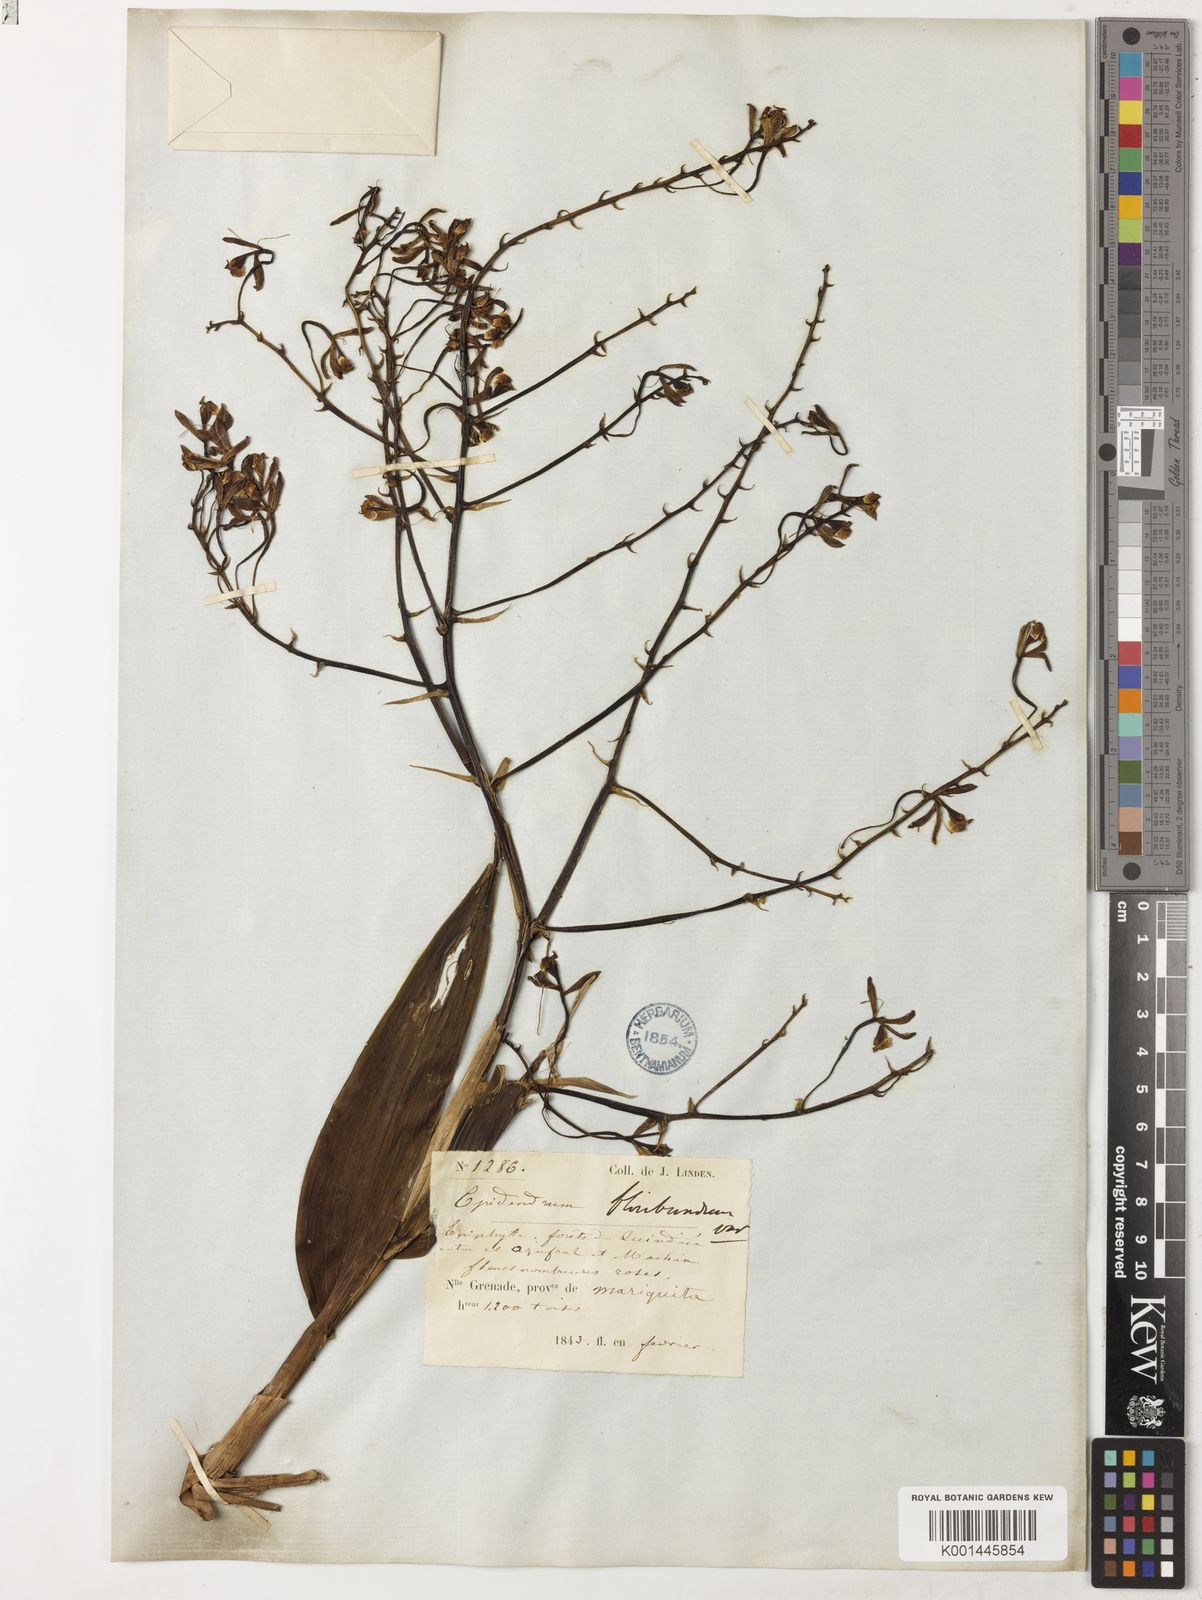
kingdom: Plantae
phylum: Tracheophyta
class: Liliopsida
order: Asparagales
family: Orchidaceae
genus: Epidendrum
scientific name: Epidendrum lilacinoides
